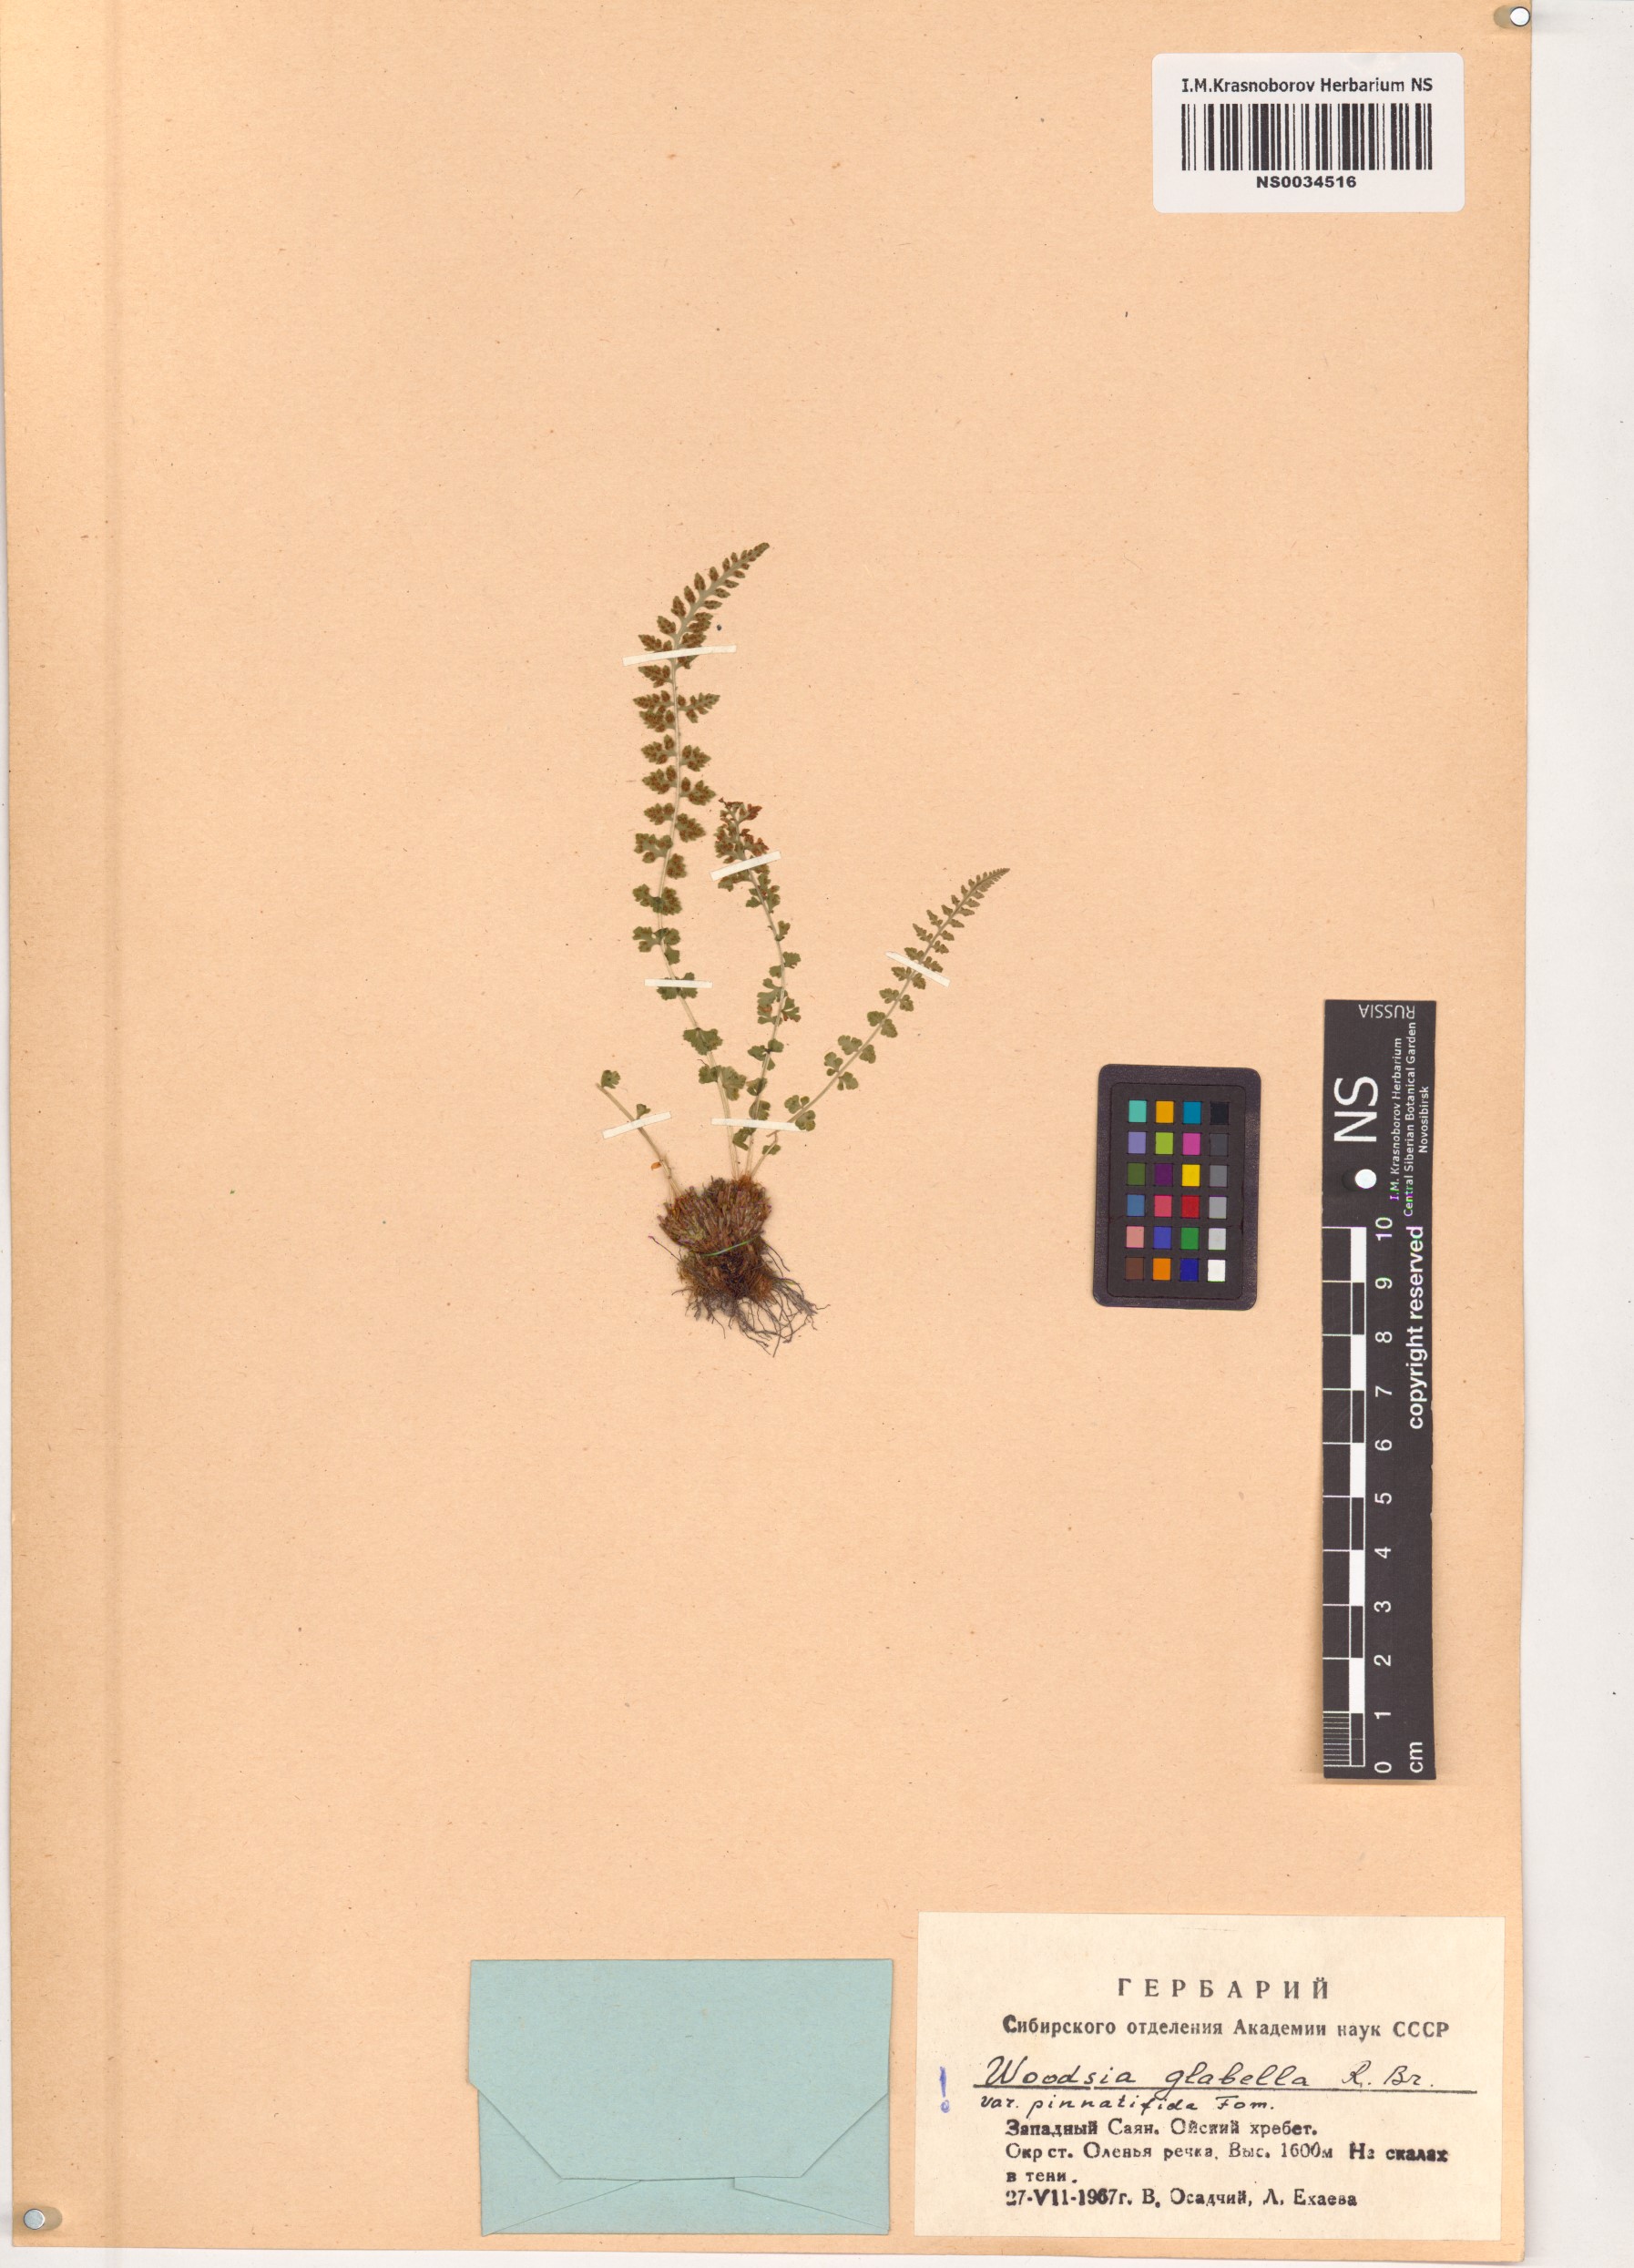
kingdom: Plantae
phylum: Tracheophyta
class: Polypodiopsida
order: Polypodiales
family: Woodsiaceae
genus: Woodsia
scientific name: Woodsia pulchella
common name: Graceful woodsia
